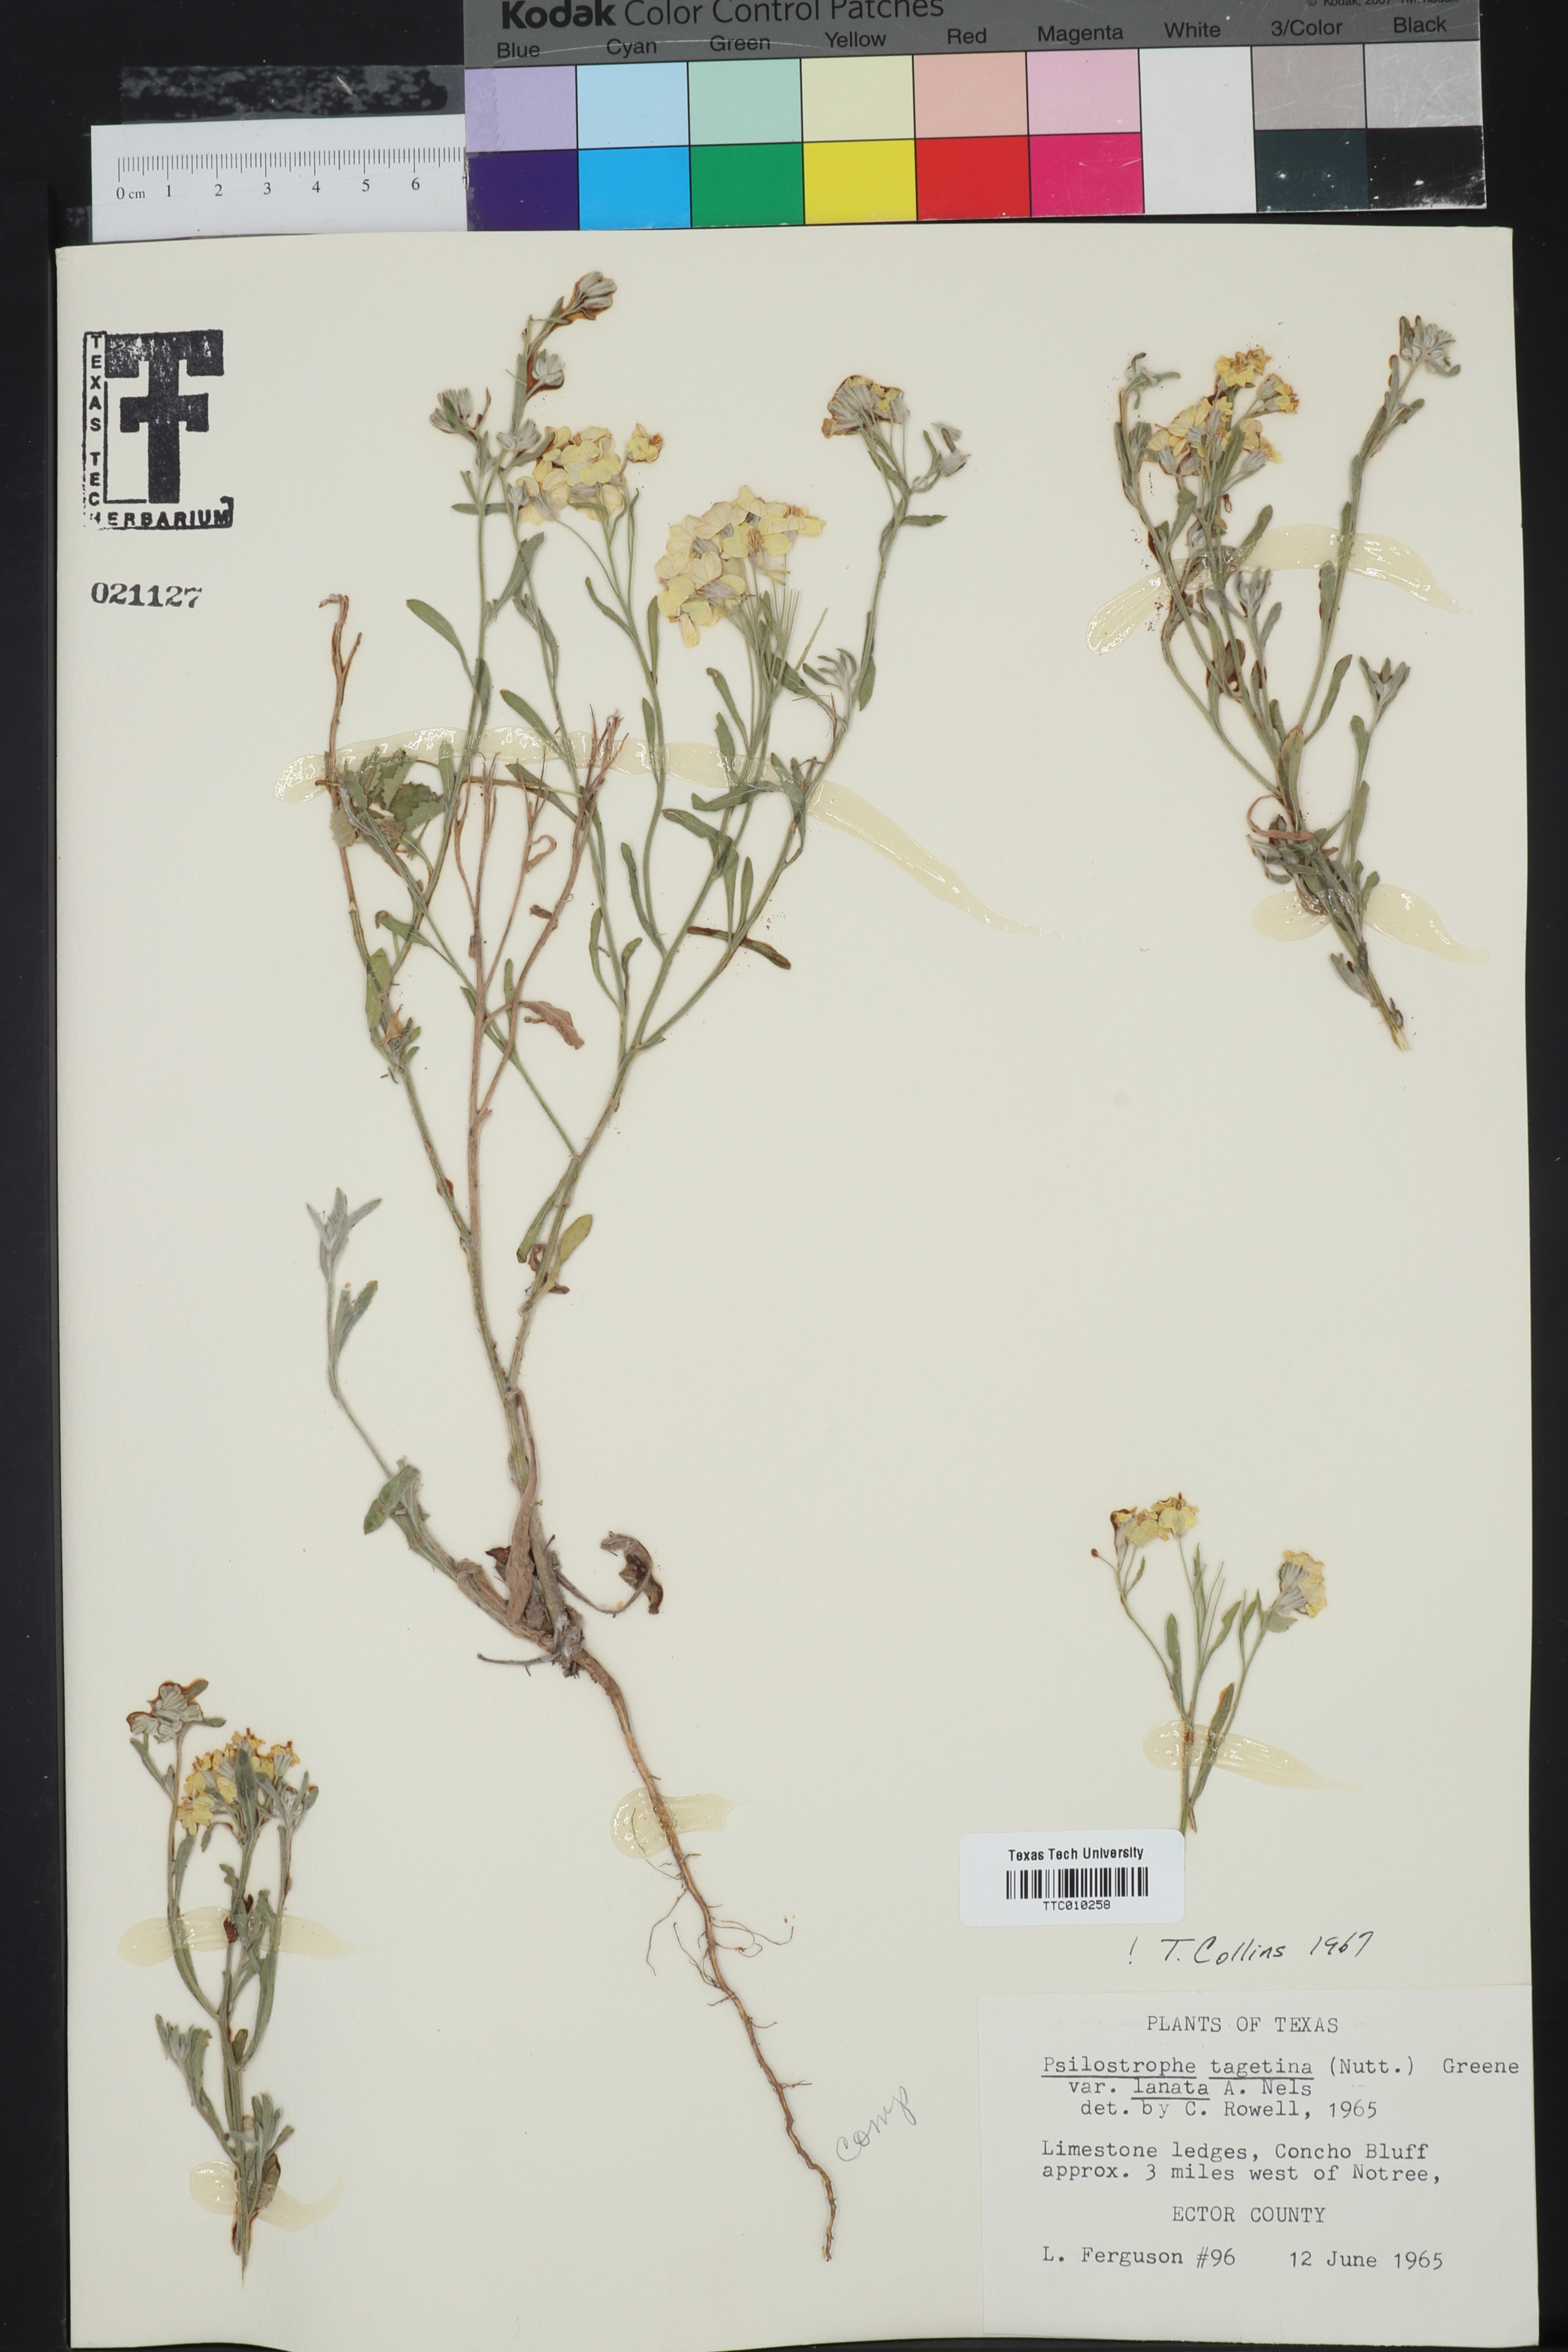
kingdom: Plantae
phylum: Tracheophyta
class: Magnoliopsida
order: Asterales
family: Asteraceae
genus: Psilostrophe
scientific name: Psilostrophe tagetina
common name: Marigold paper-flower
